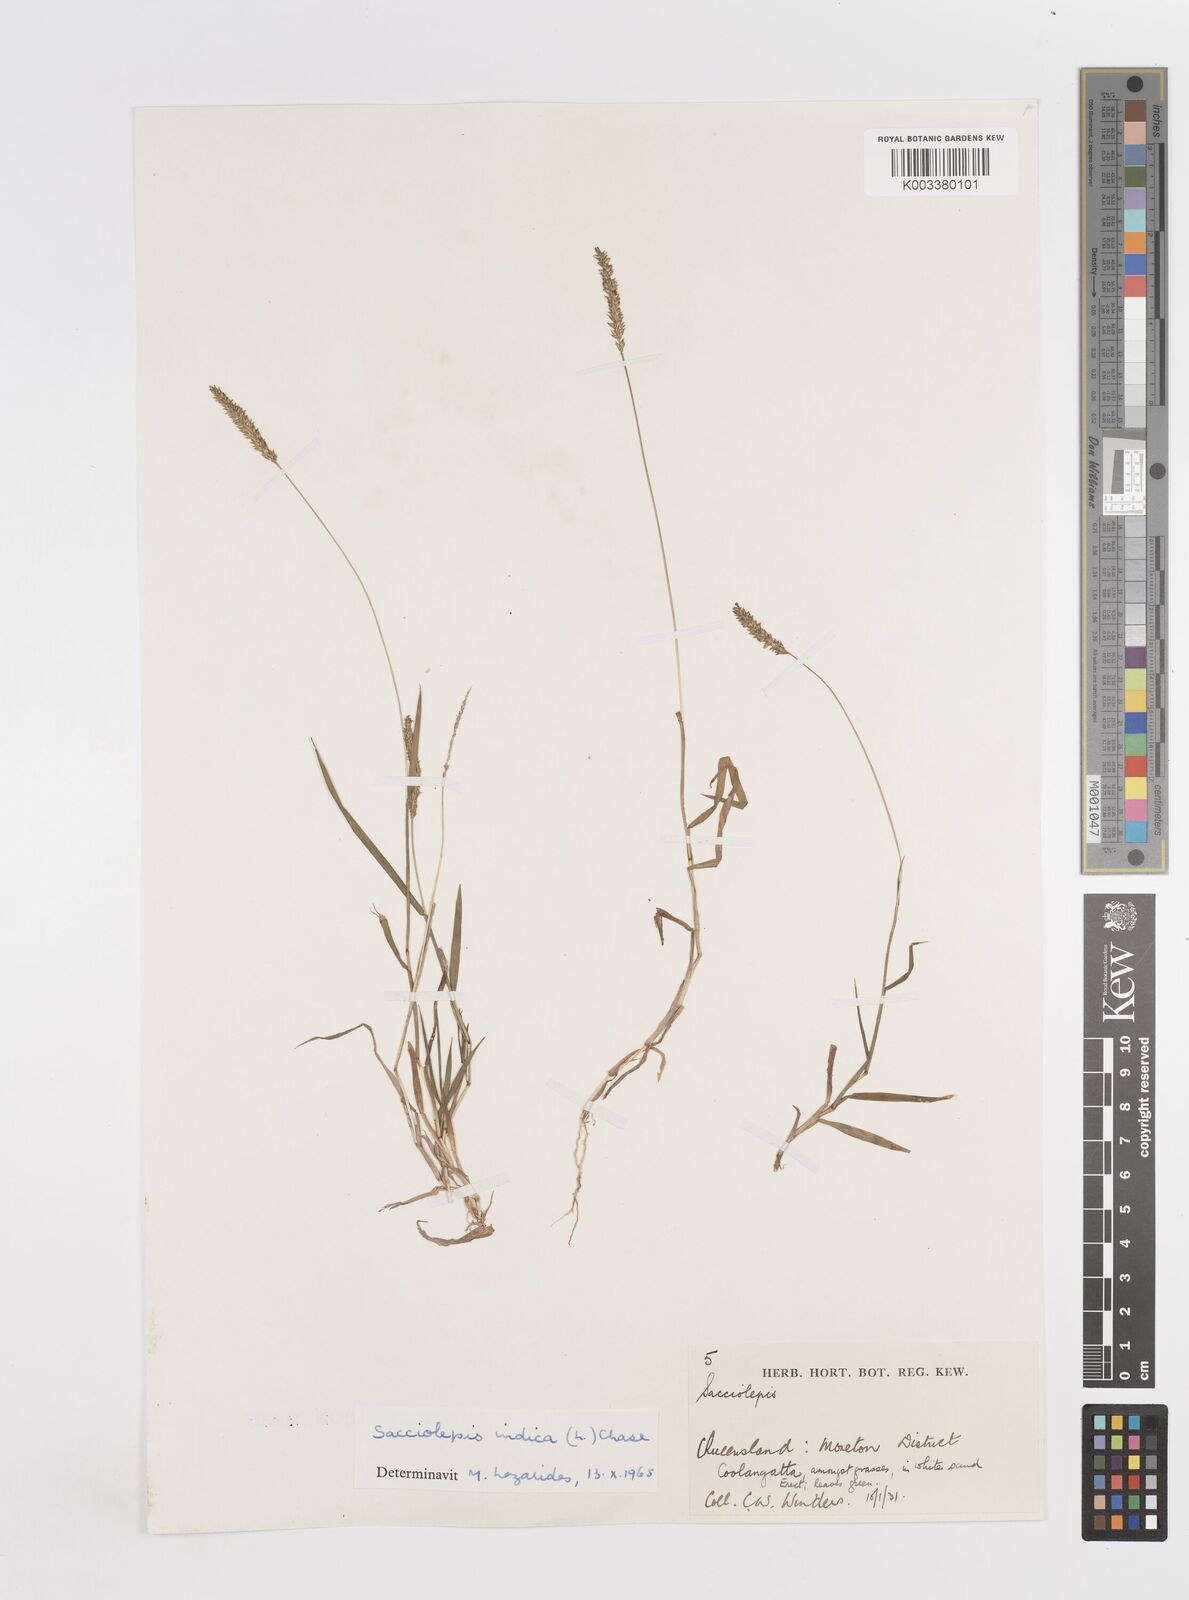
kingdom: Plantae
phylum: Tracheophyta
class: Liliopsida
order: Poales
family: Poaceae
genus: Sacciolepis
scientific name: Sacciolepis indica
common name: Glenwoodgrass
